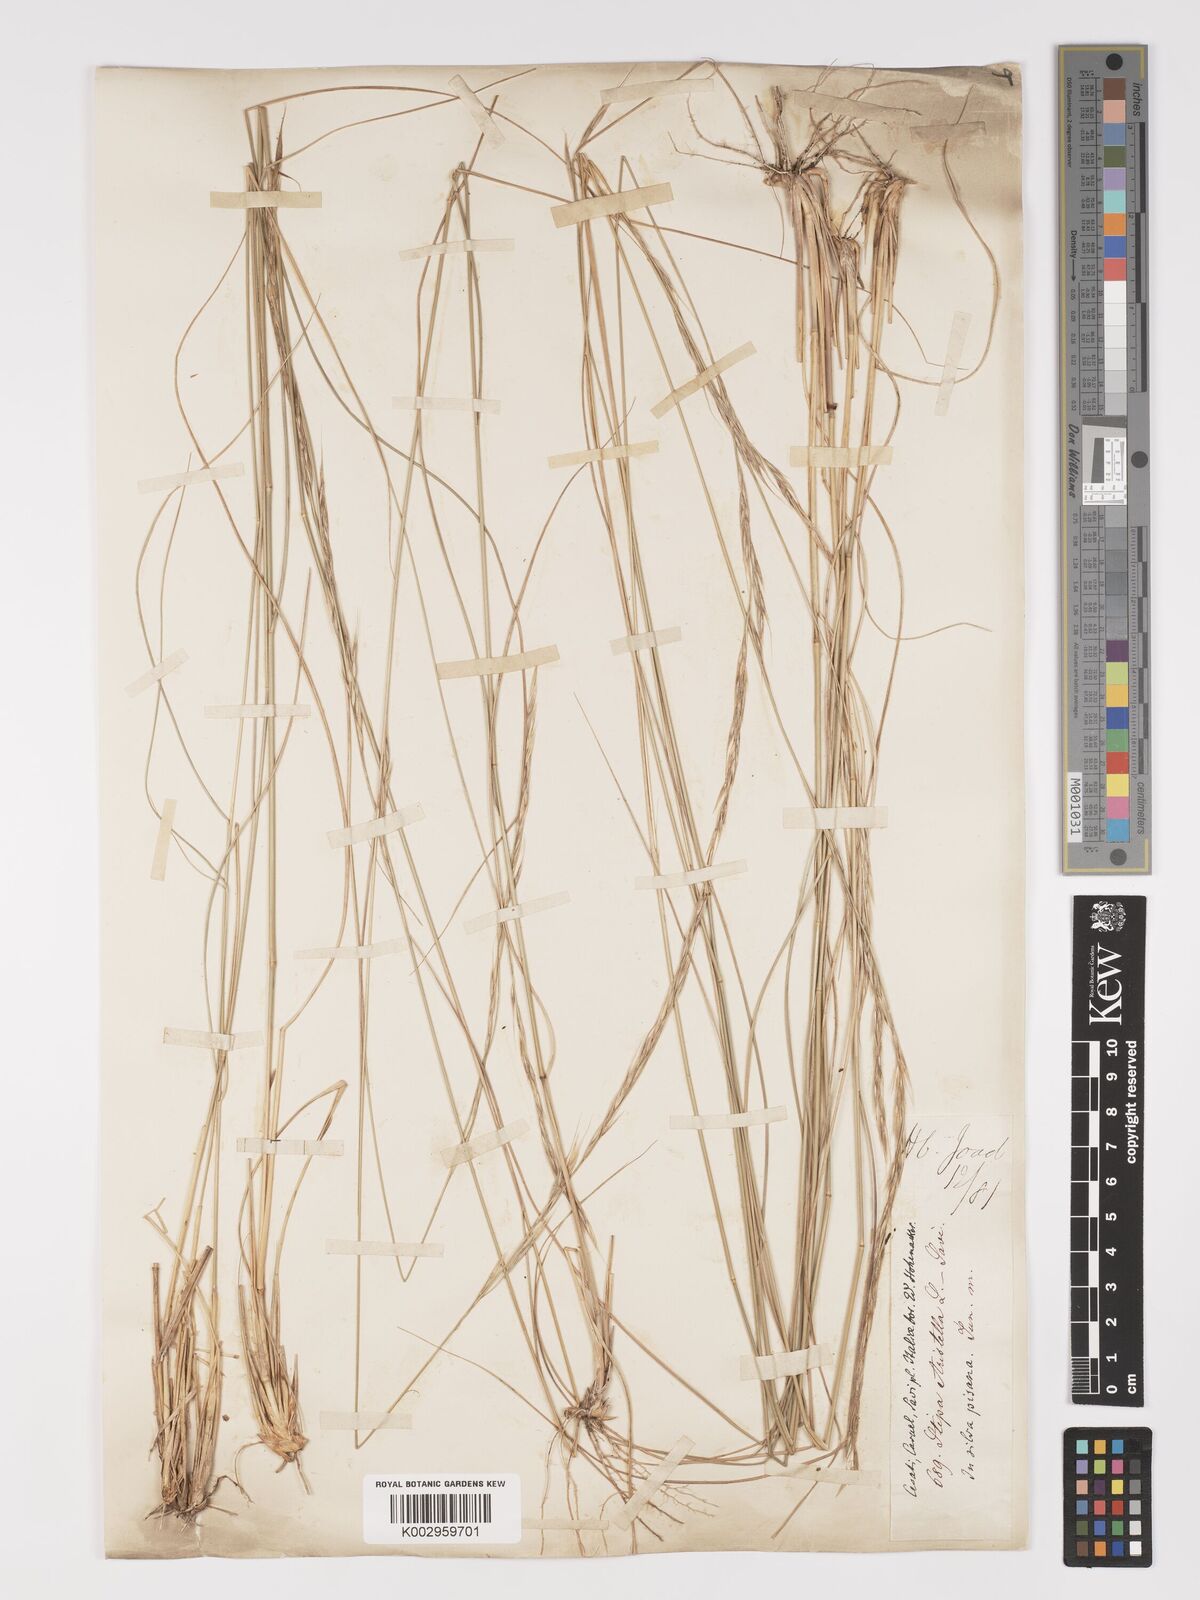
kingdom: Plantae
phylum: Tracheophyta
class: Liliopsida
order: Poales
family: Poaceae
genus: Achnatherum
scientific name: Achnatherum bromoides
